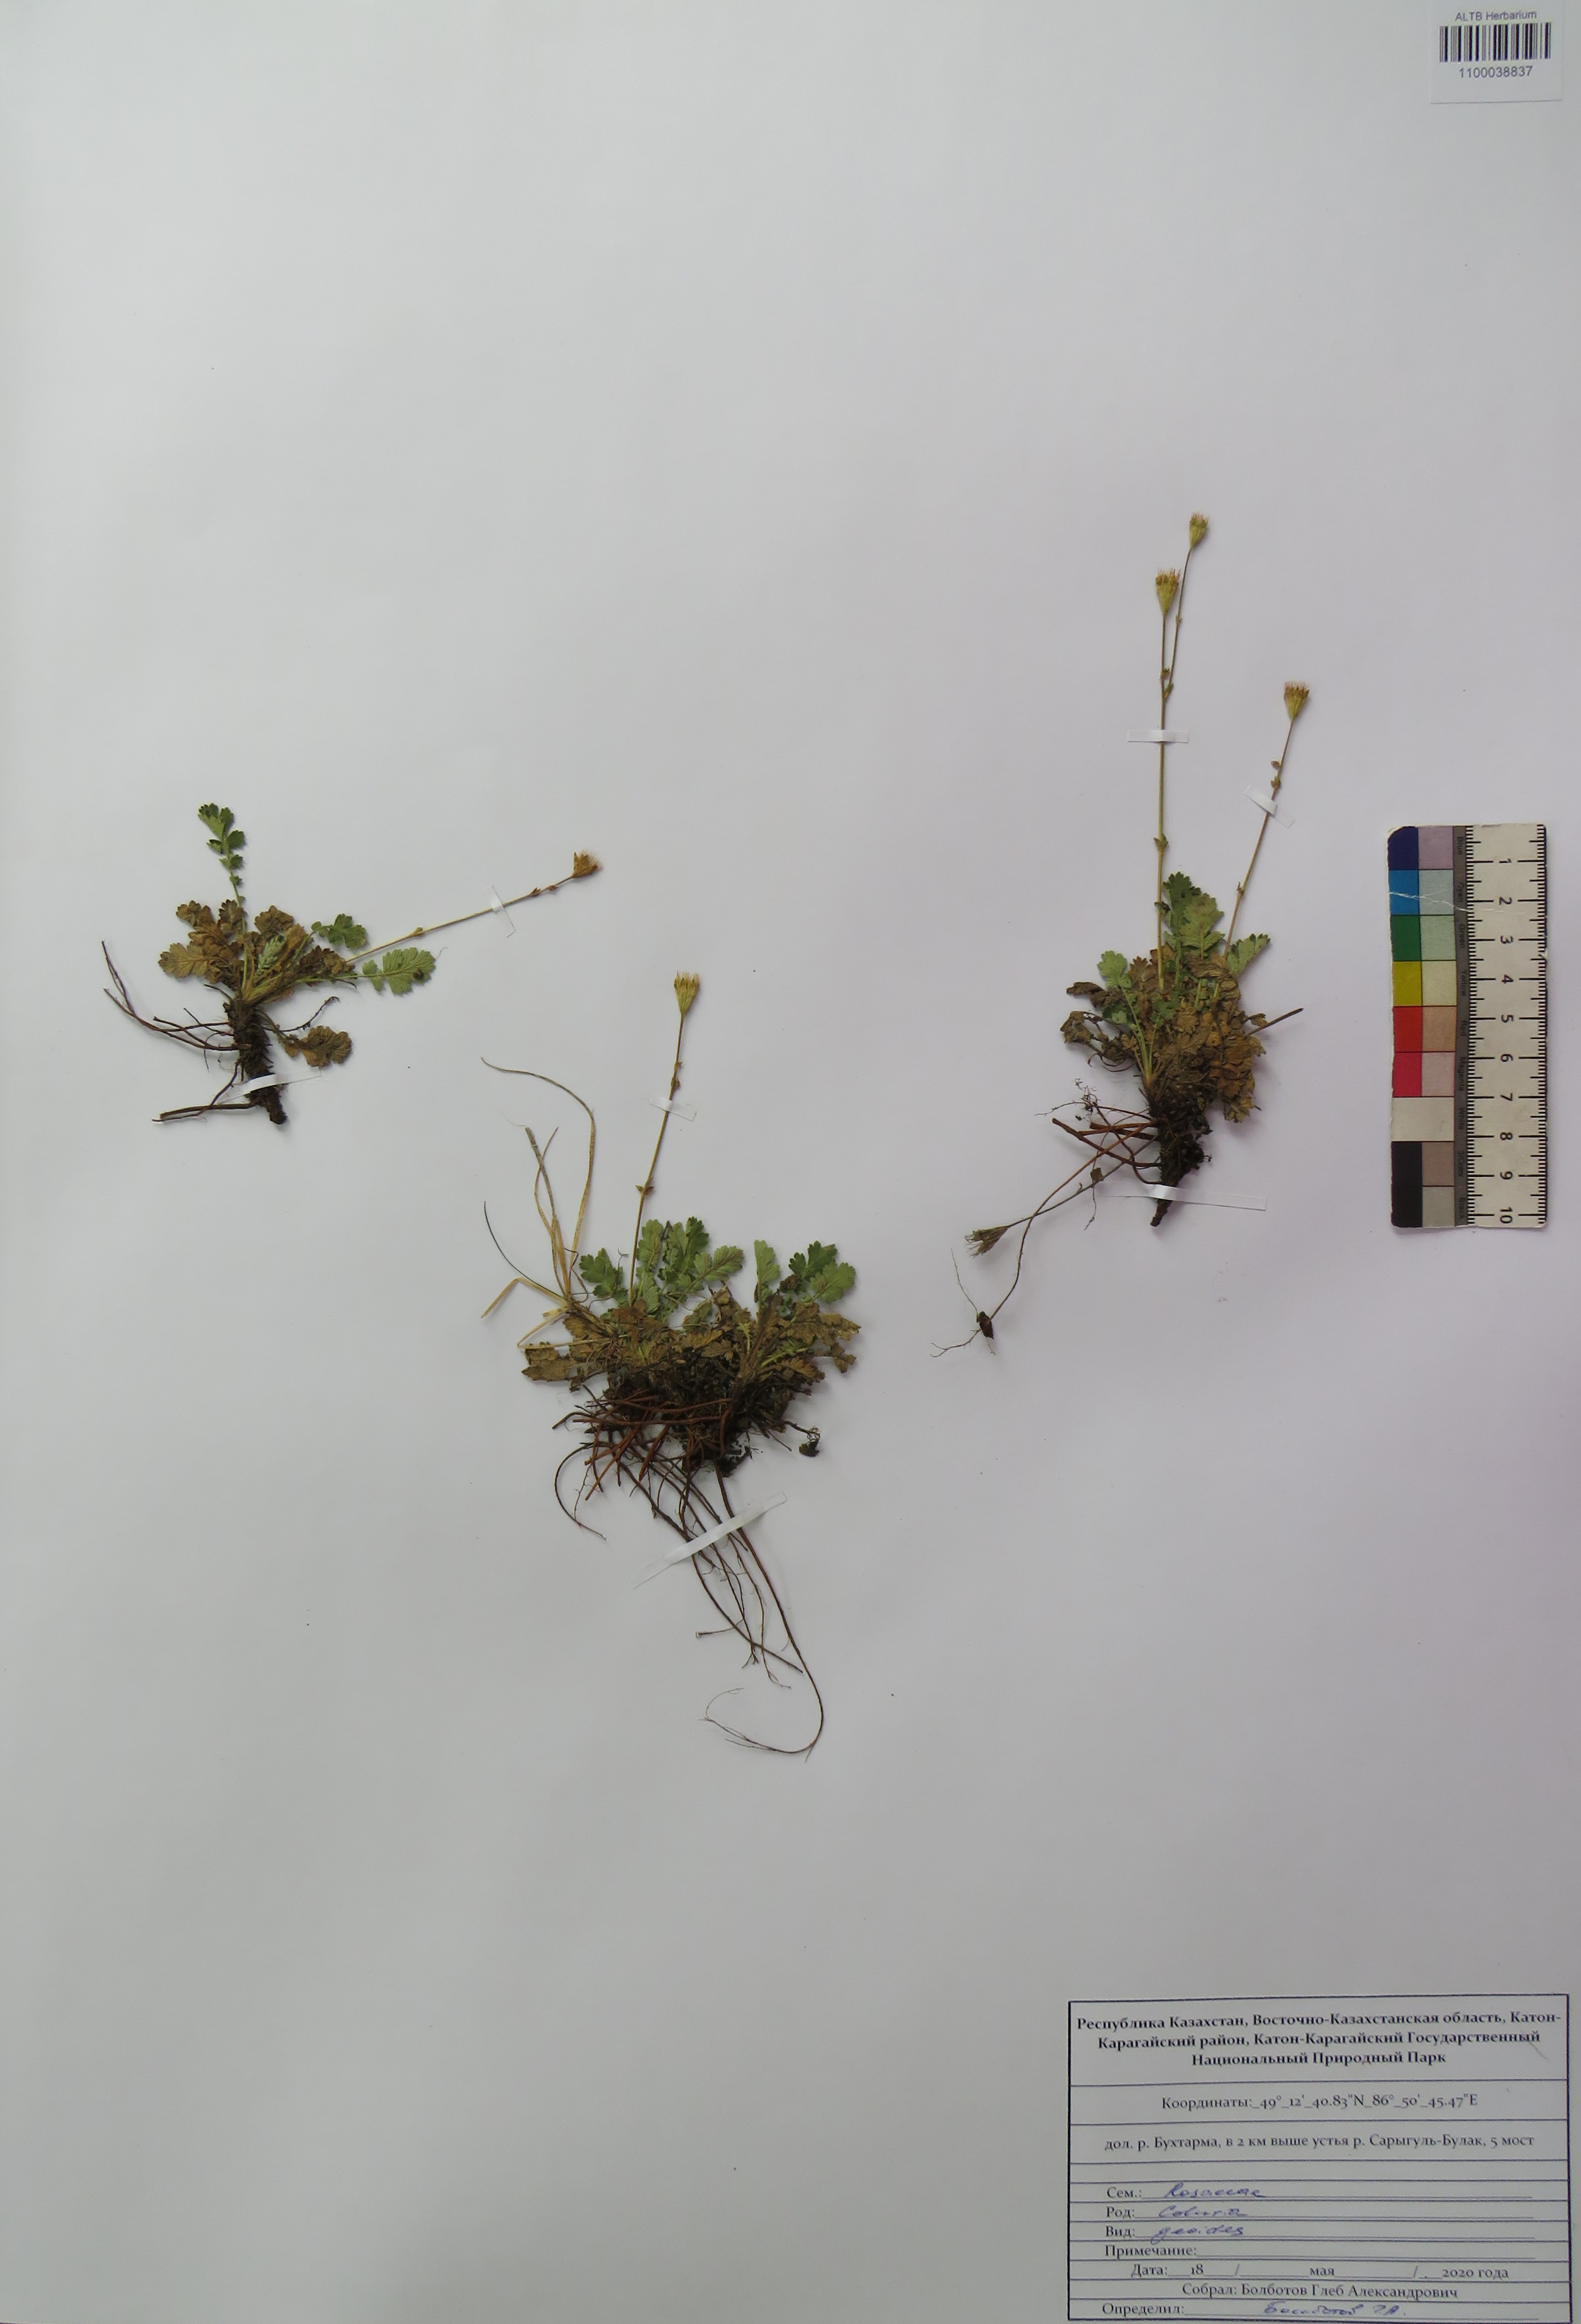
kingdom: Plantae
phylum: Tracheophyta
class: Magnoliopsida
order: Rosales
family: Rosaceae
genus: Geum
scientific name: Geum geoides
